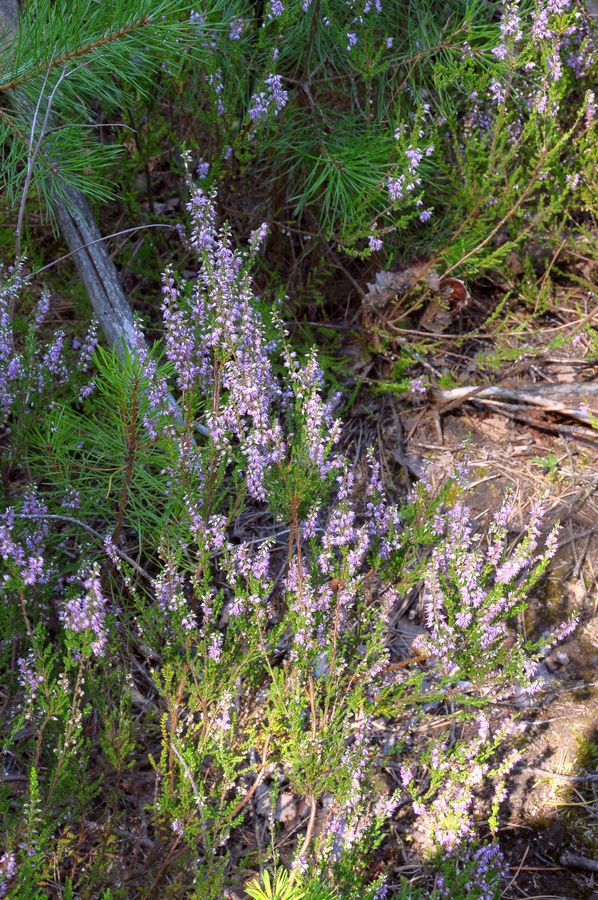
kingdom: Plantae
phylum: Tracheophyta
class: Magnoliopsida
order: Ericales
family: Ericaceae
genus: Calluna
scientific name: Calluna vulgaris
